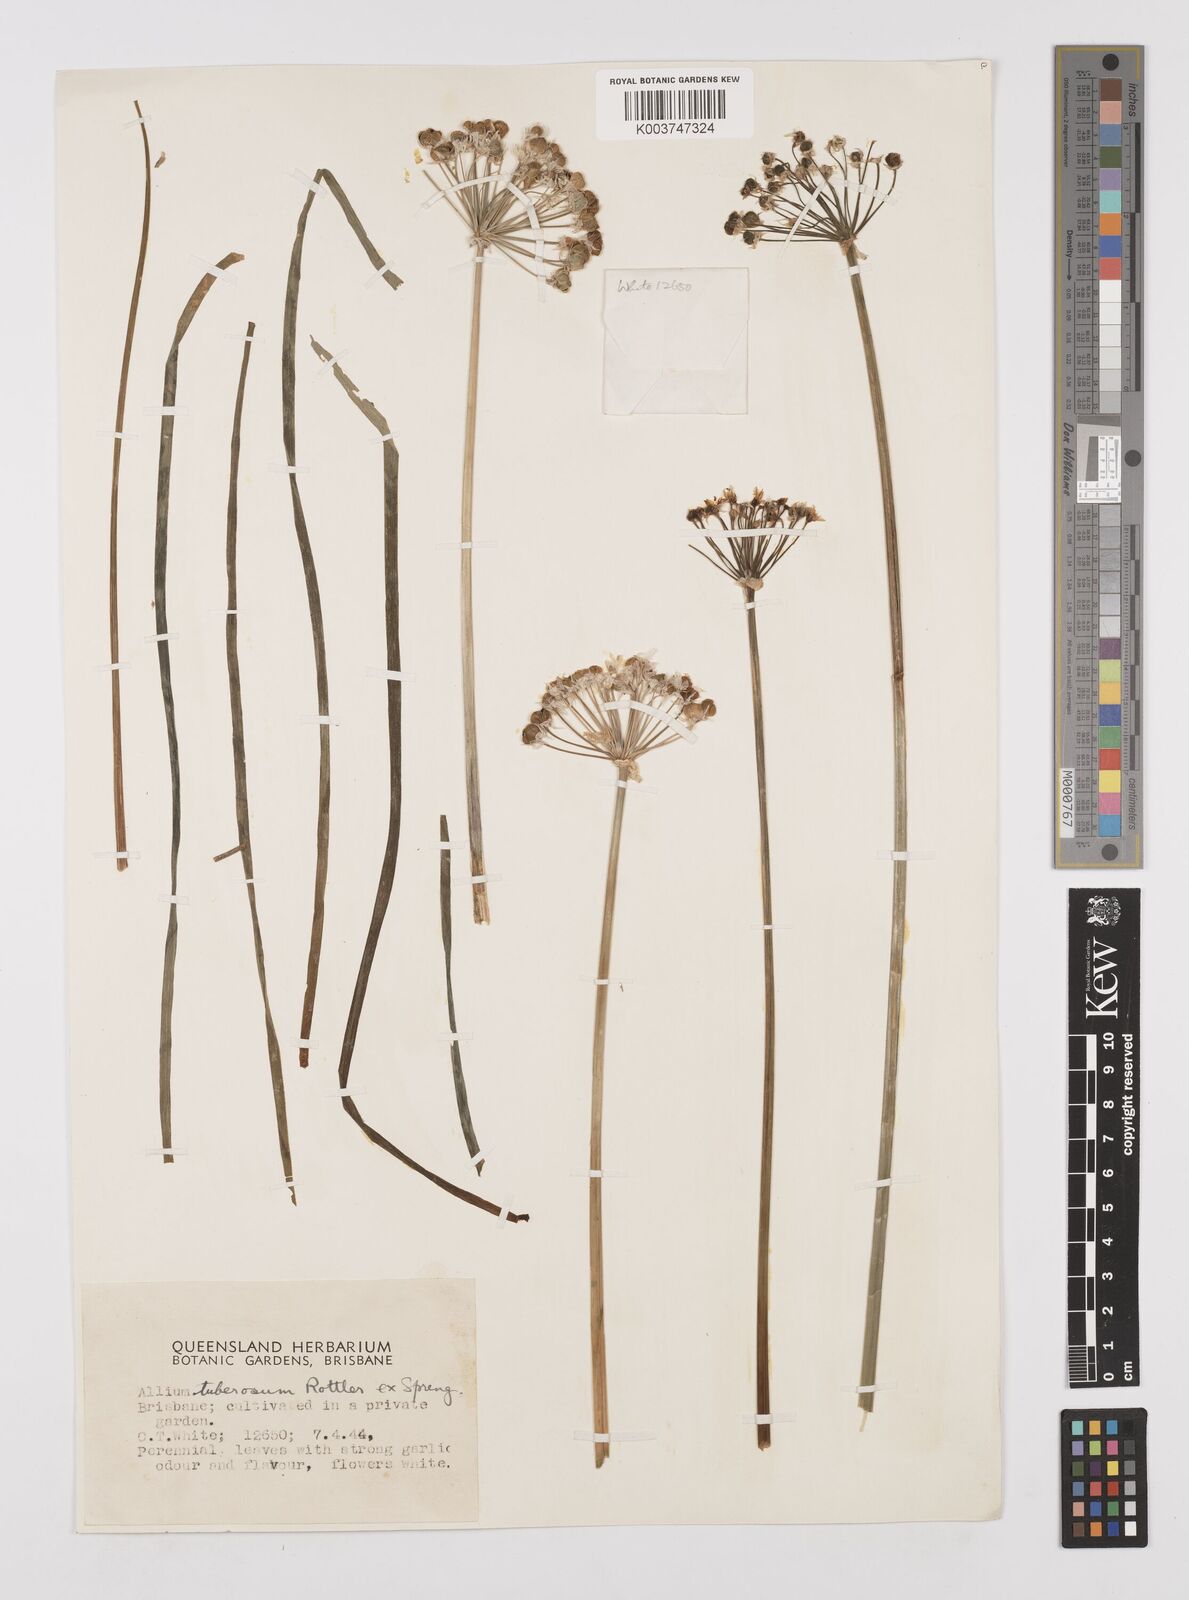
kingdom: Plantae
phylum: Tracheophyta
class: Liliopsida
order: Asparagales
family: Amaryllidaceae
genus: Allium
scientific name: Allium tuberosum
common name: Chinese chives
